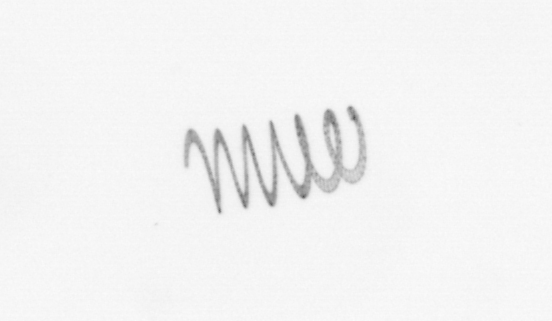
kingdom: Chromista
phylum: Ochrophyta
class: Bacillariophyceae
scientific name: Bacillariophyceae
